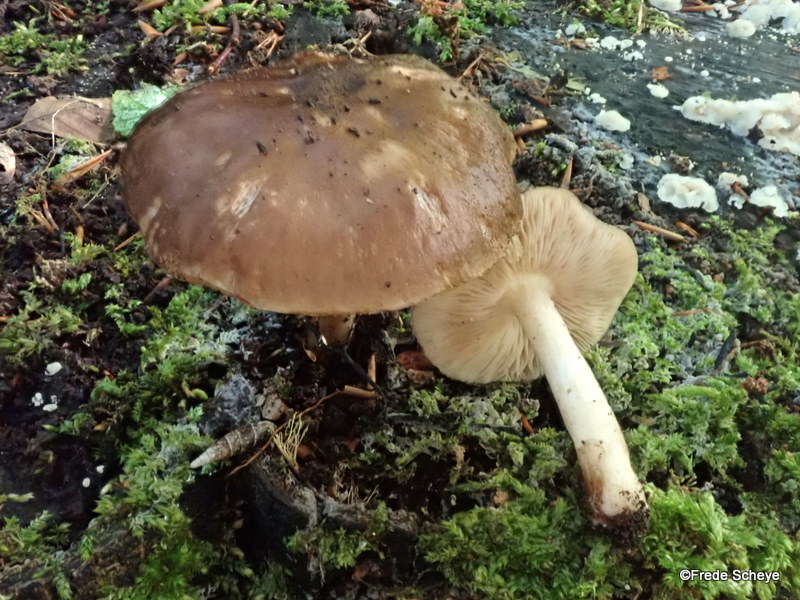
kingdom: Fungi
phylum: Basidiomycota
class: Agaricomycetes
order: Agaricales
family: Pluteaceae
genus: Pluteus
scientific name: Pluteus cervinus
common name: sodfarvet skærmhat
